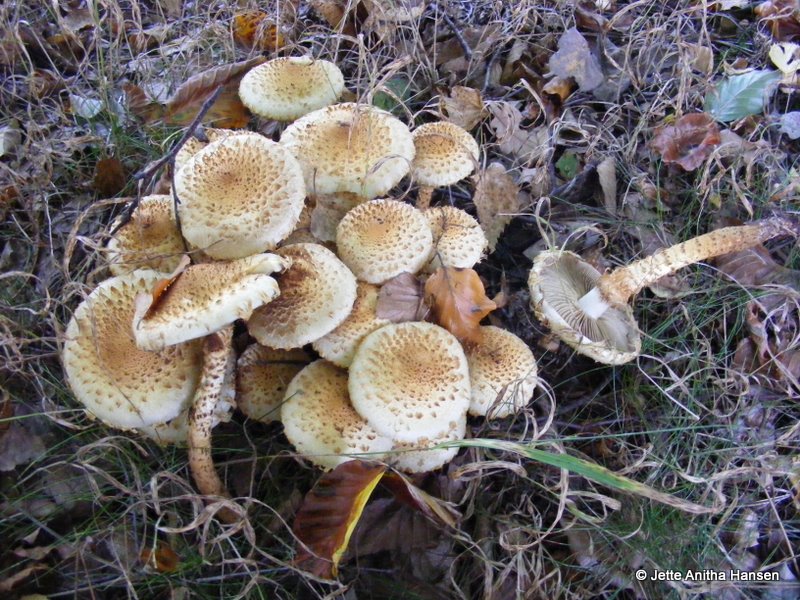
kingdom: Fungi
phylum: Basidiomycota
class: Agaricomycetes
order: Agaricales
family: Strophariaceae
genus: Pholiota
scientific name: Pholiota squarrosa
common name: krumskællet skælhat
